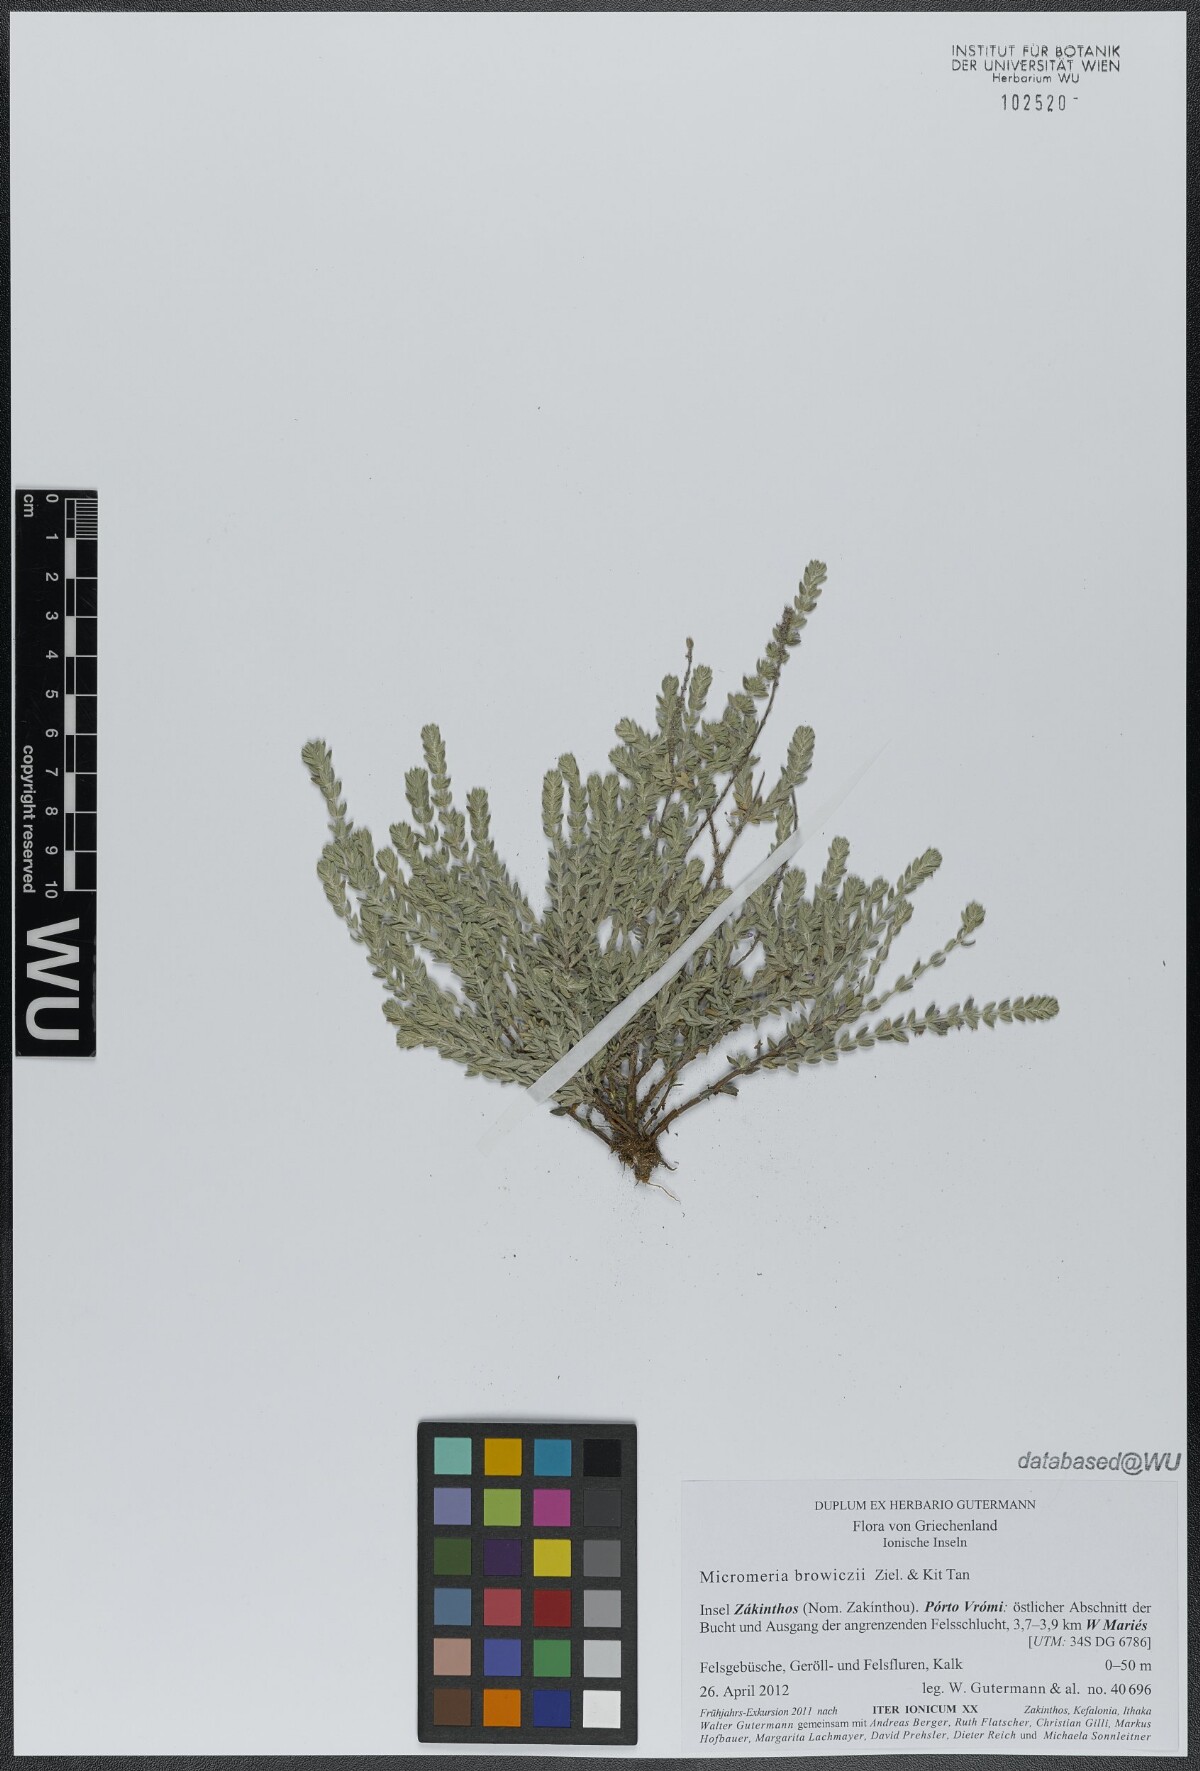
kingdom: Plantae
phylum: Tracheophyta
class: Magnoliopsida
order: Lamiales
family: Lamiaceae
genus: Micromeria
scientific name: Micromeria browiczii
